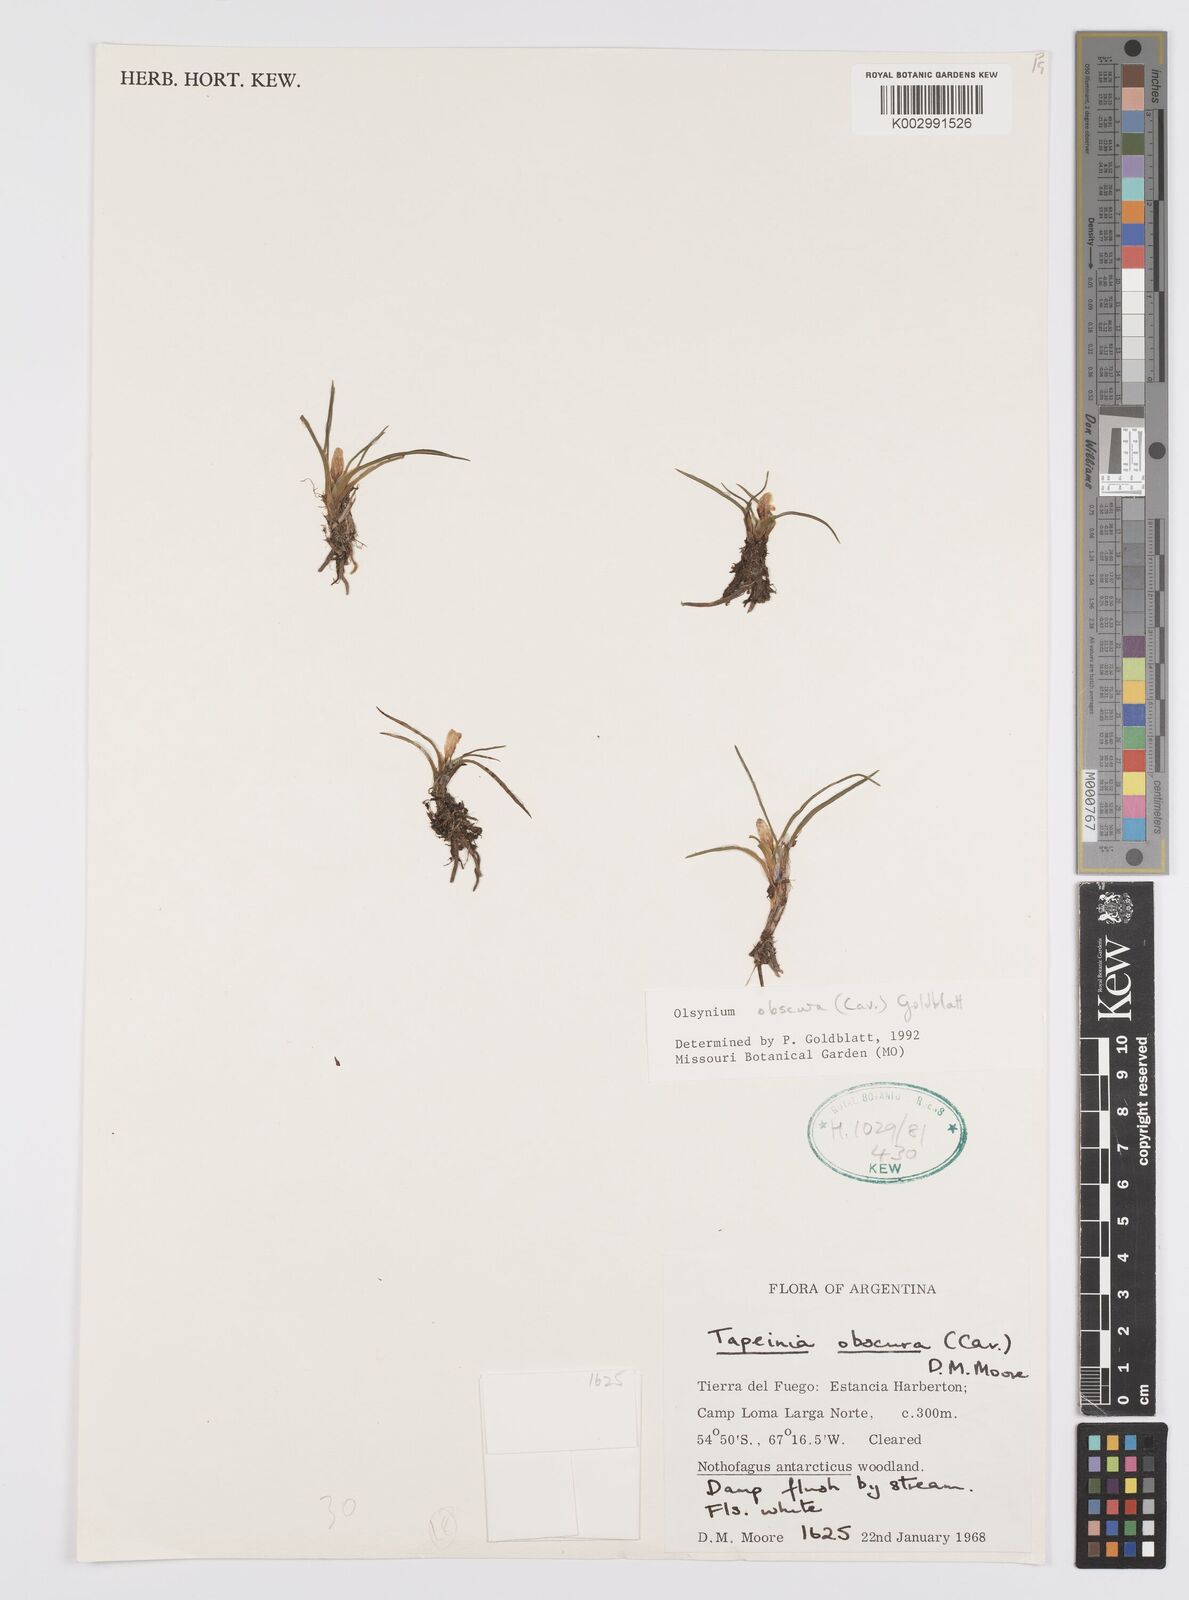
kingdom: Plantae
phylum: Tracheophyta
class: Liliopsida
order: Asparagales
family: Iridaceae
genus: Olsynium
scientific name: Olsynium obscurum
